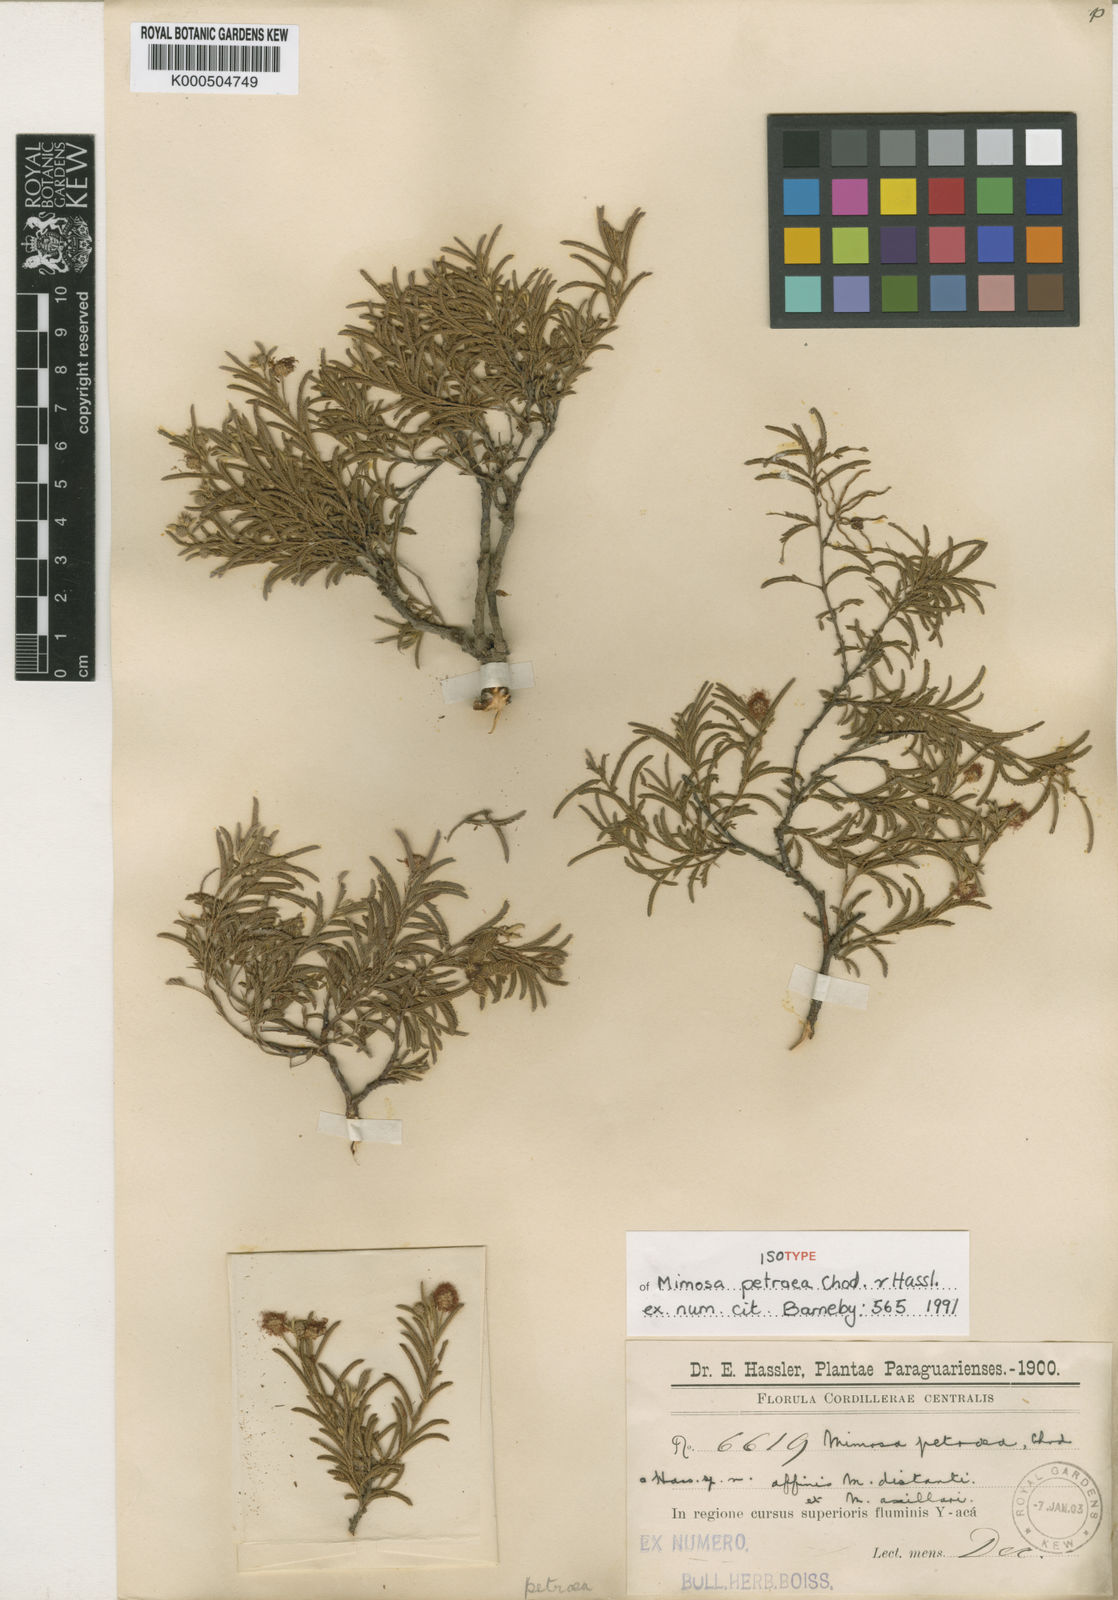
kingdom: Plantae
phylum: Tracheophyta
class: Magnoliopsida
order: Fabales
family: Fabaceae
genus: Mimosa
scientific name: Mimosa petraea
